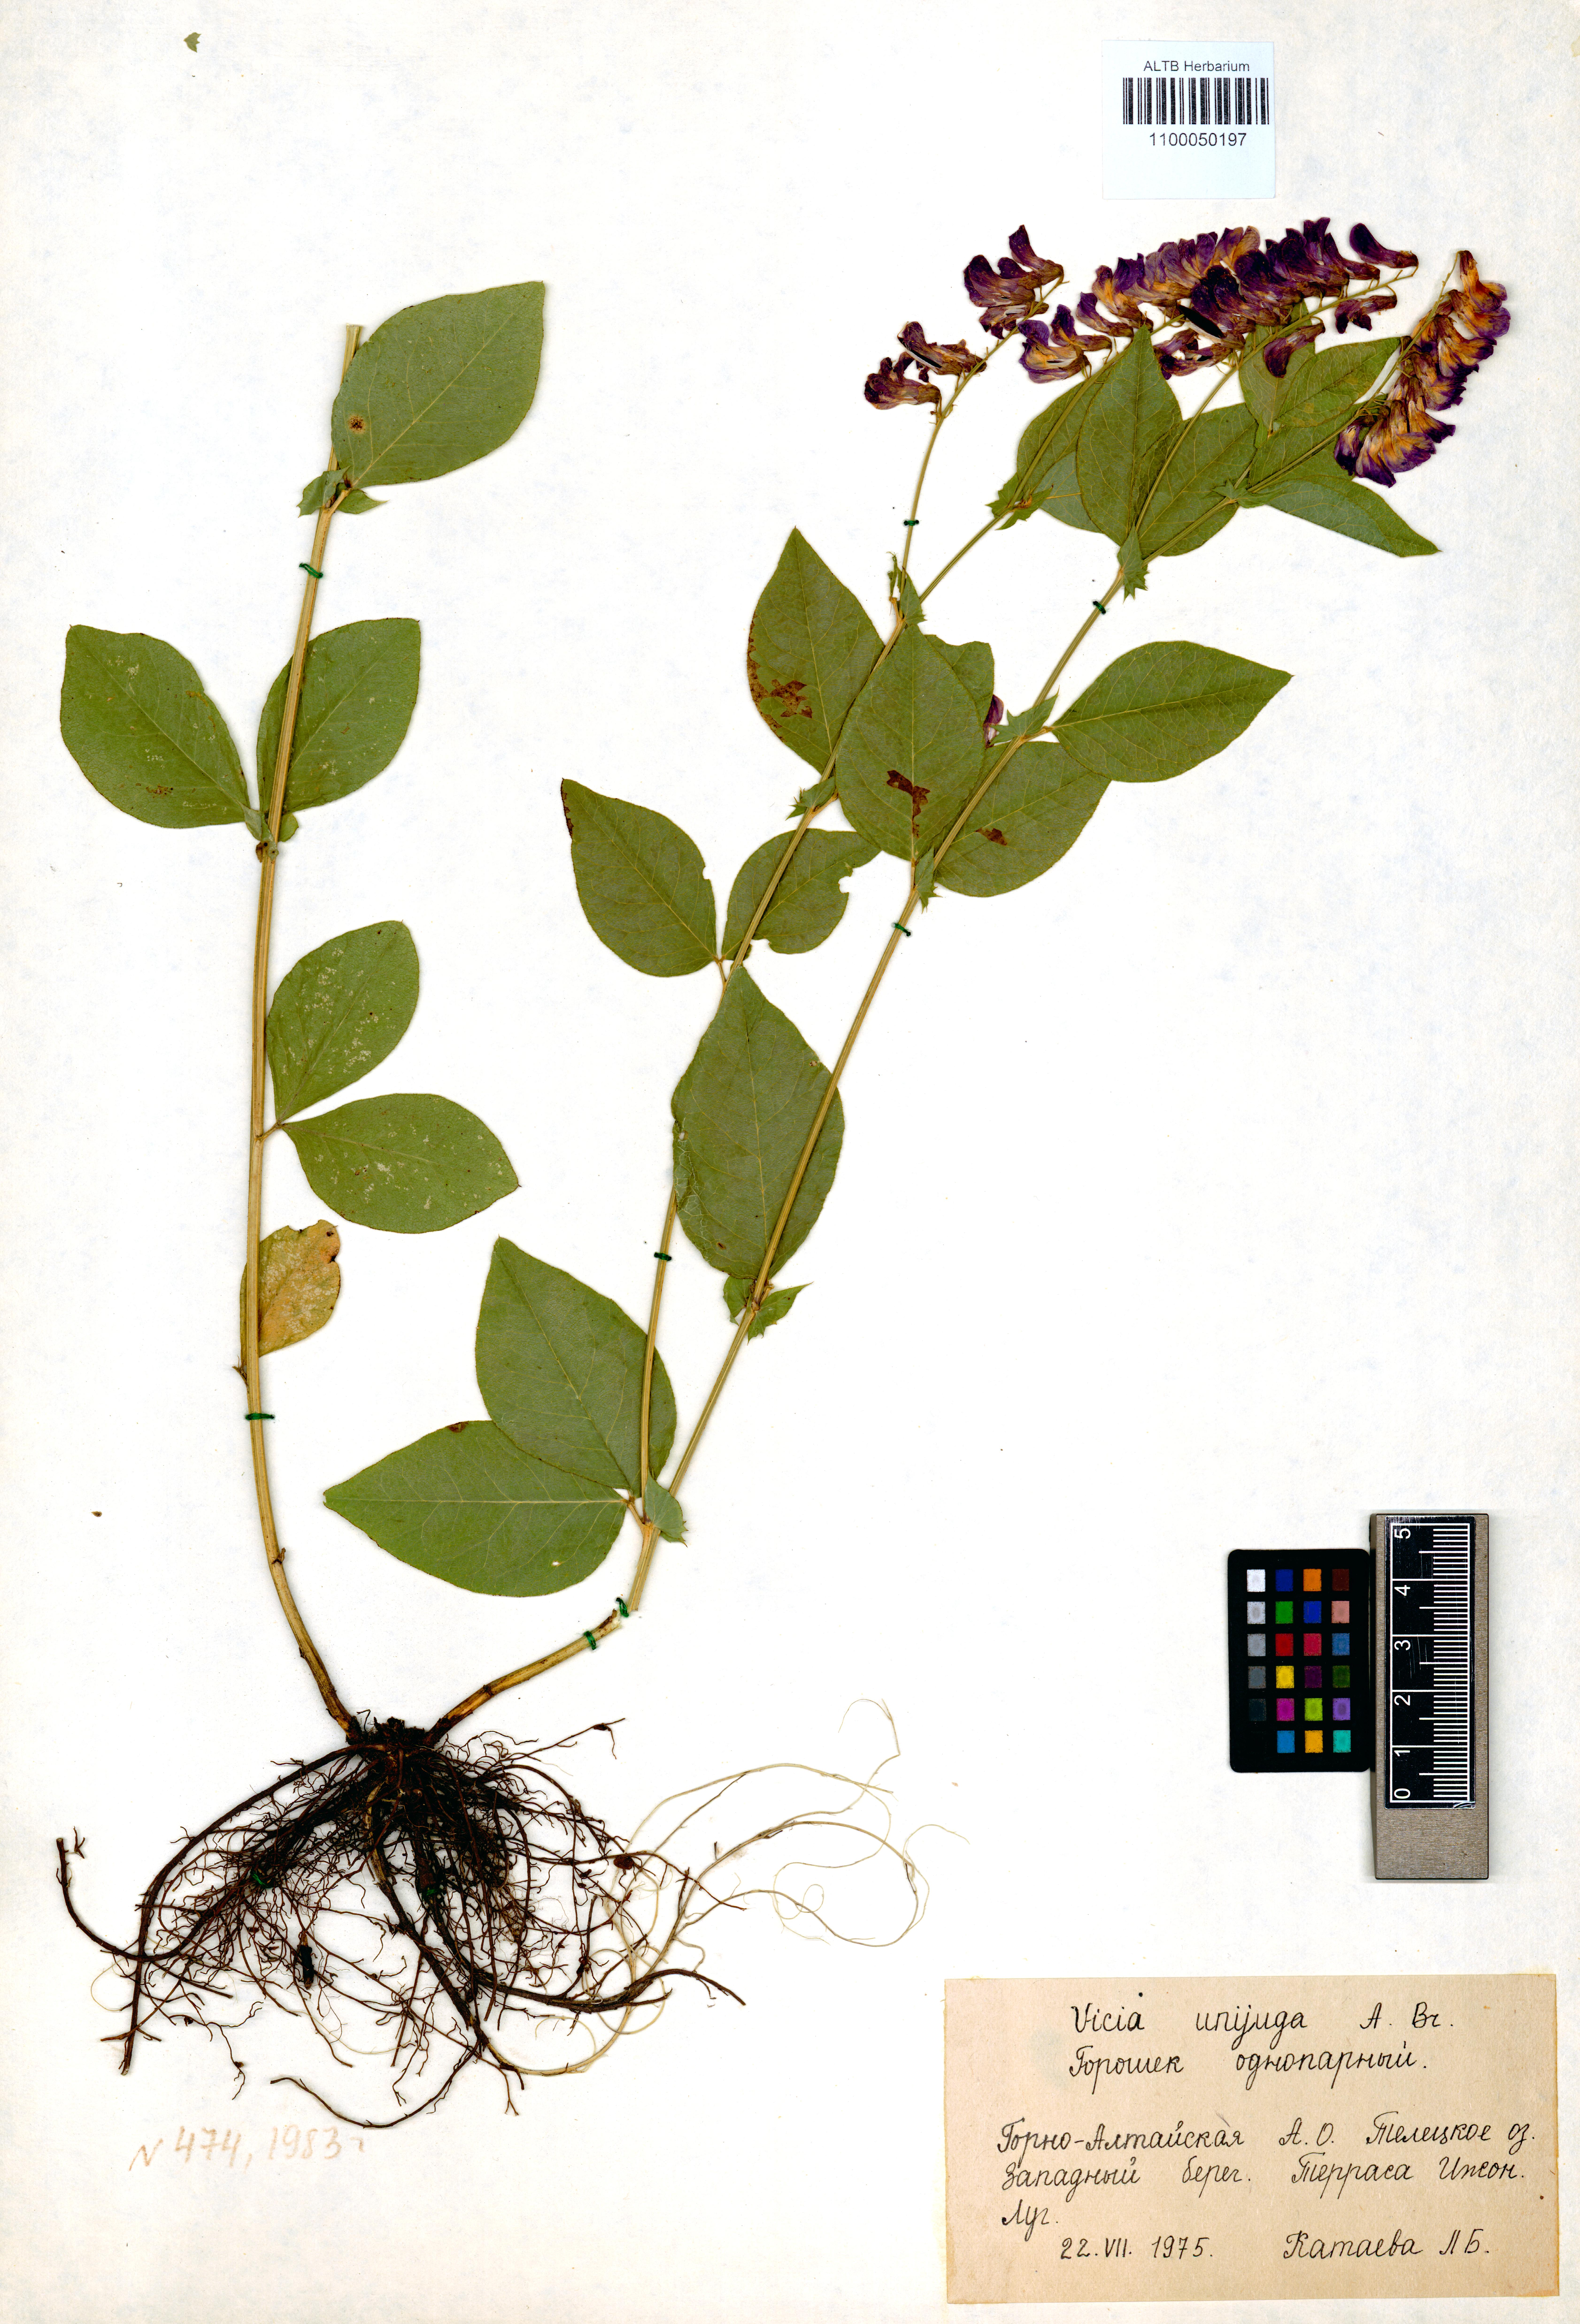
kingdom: Plantae
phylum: Tracheophyta
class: Magnoliopsida
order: Fabales
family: Fabaceae
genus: Vicia
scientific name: Vicia unijuga
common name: Two-leaf vetch
